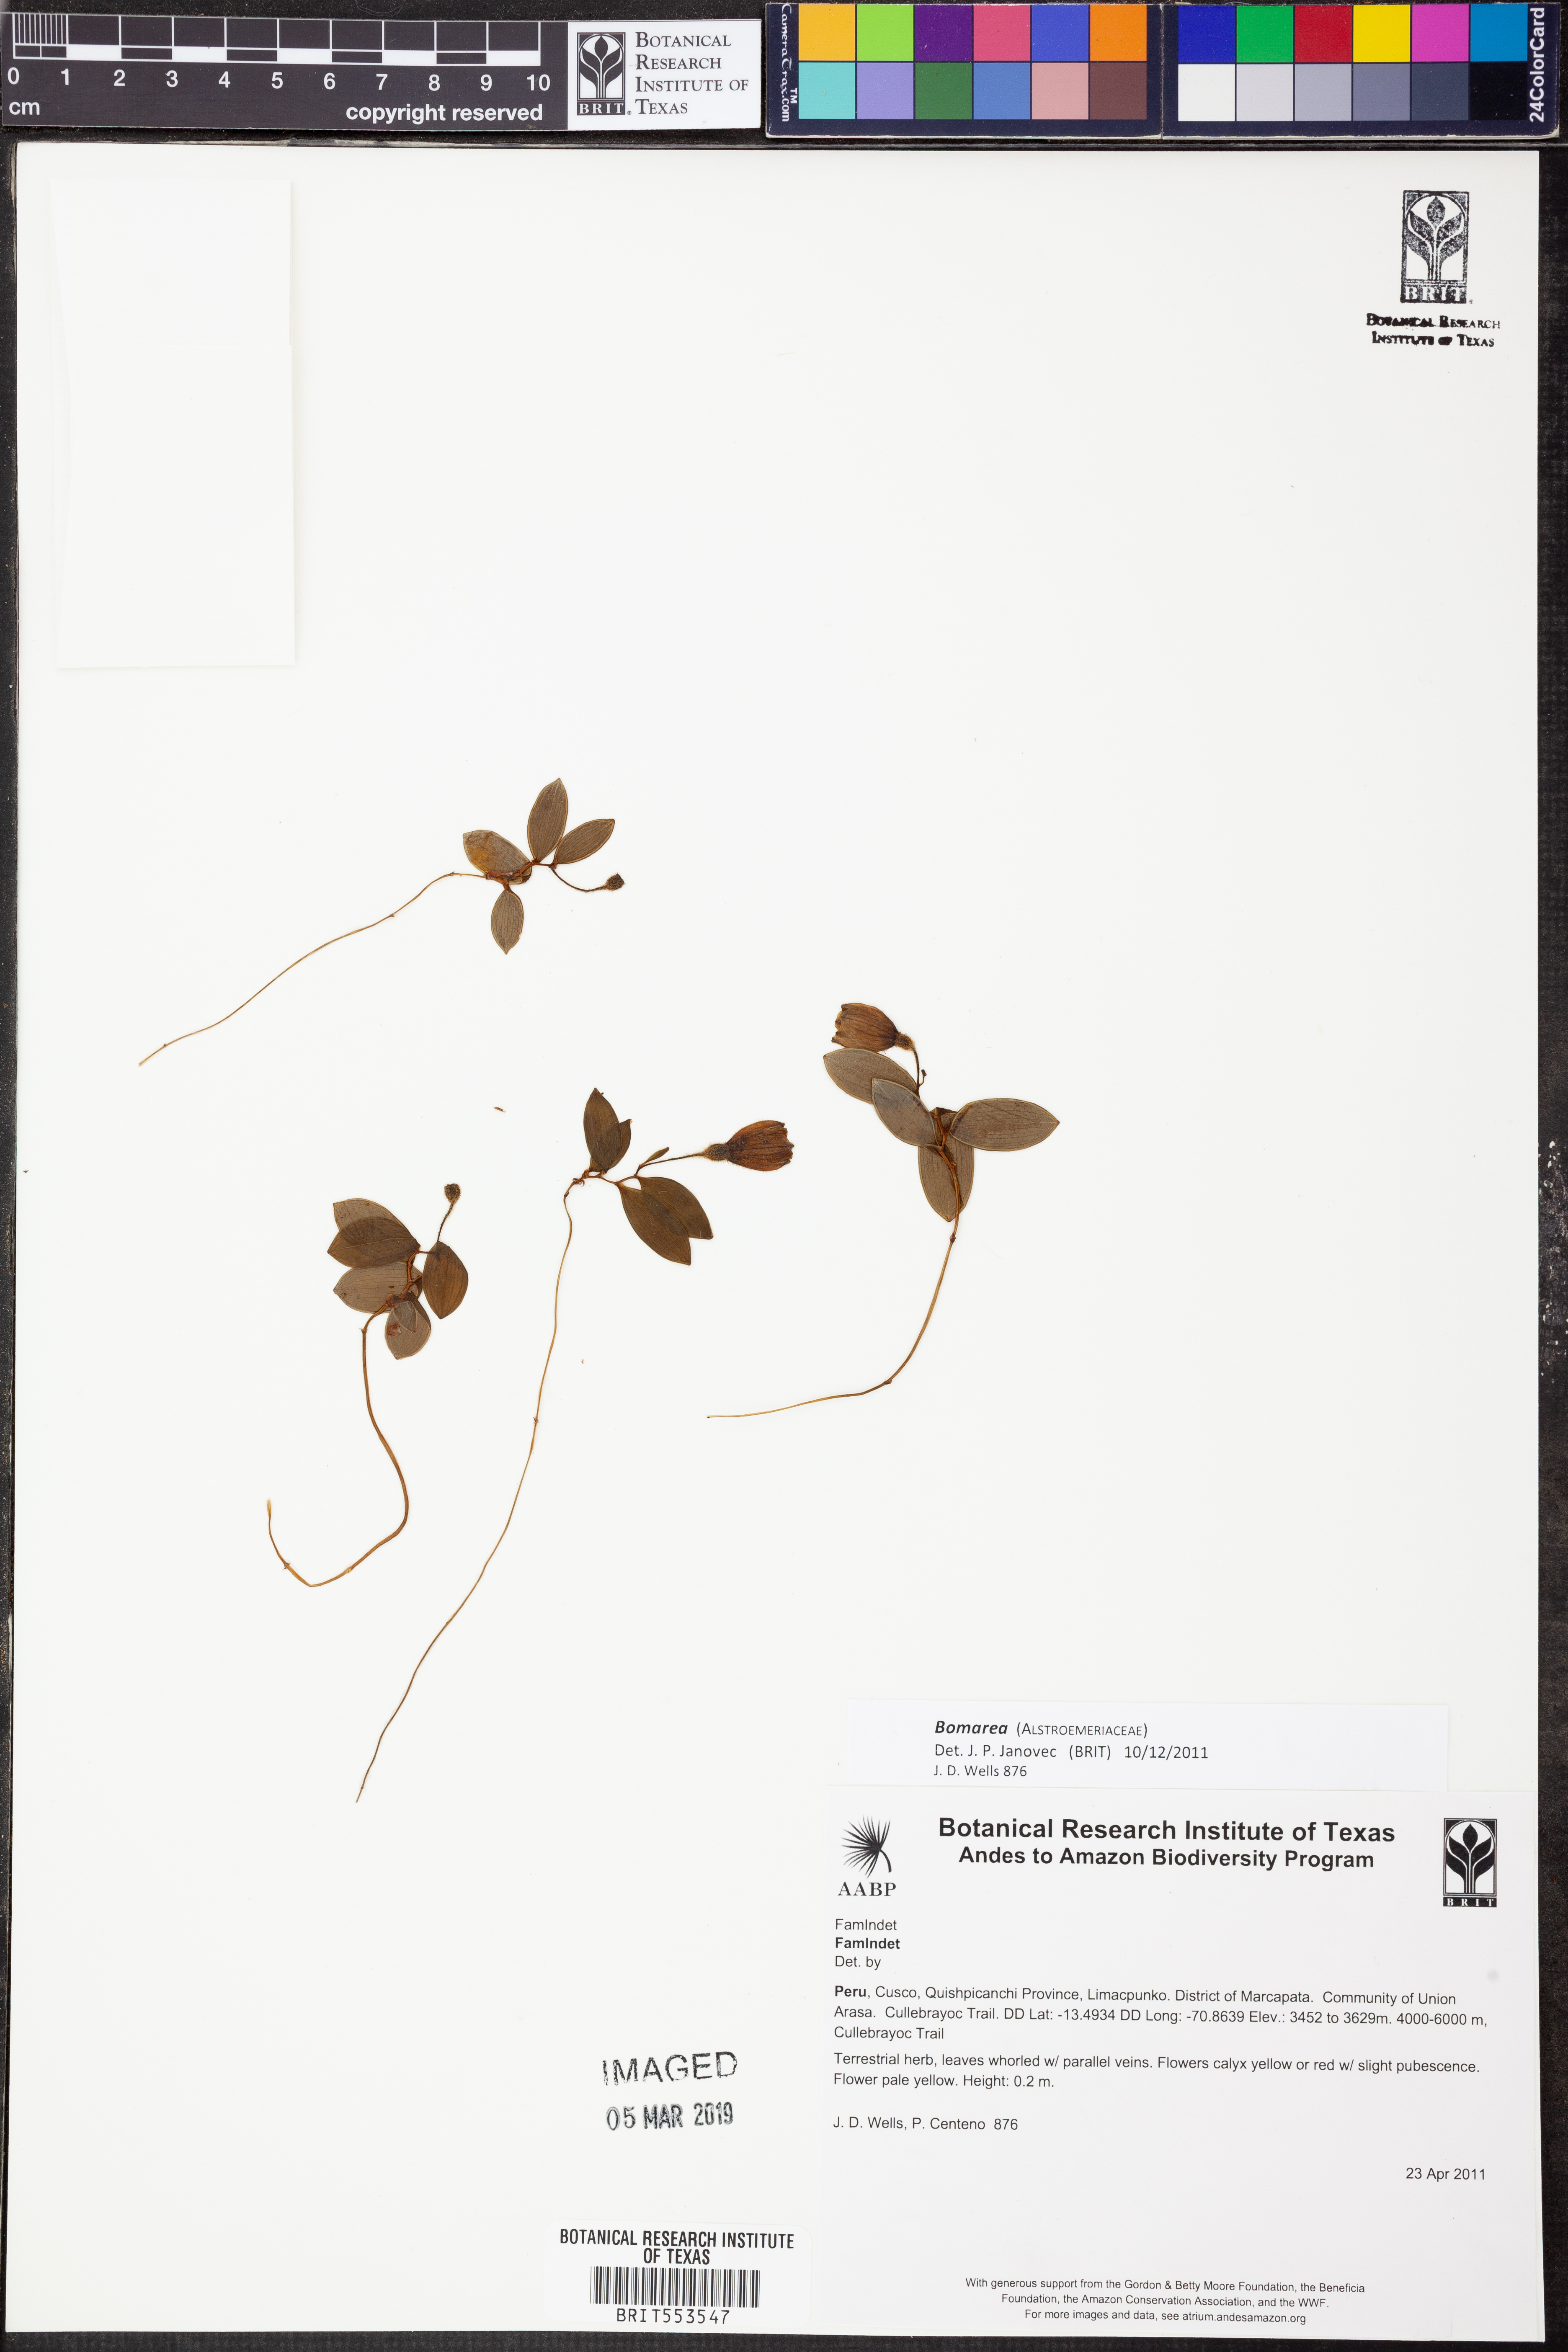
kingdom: Plantae
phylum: Tracheophyta
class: Liliopsida
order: Liliales
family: Alstroemeriaceae
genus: Bomarea
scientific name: Bomarea
